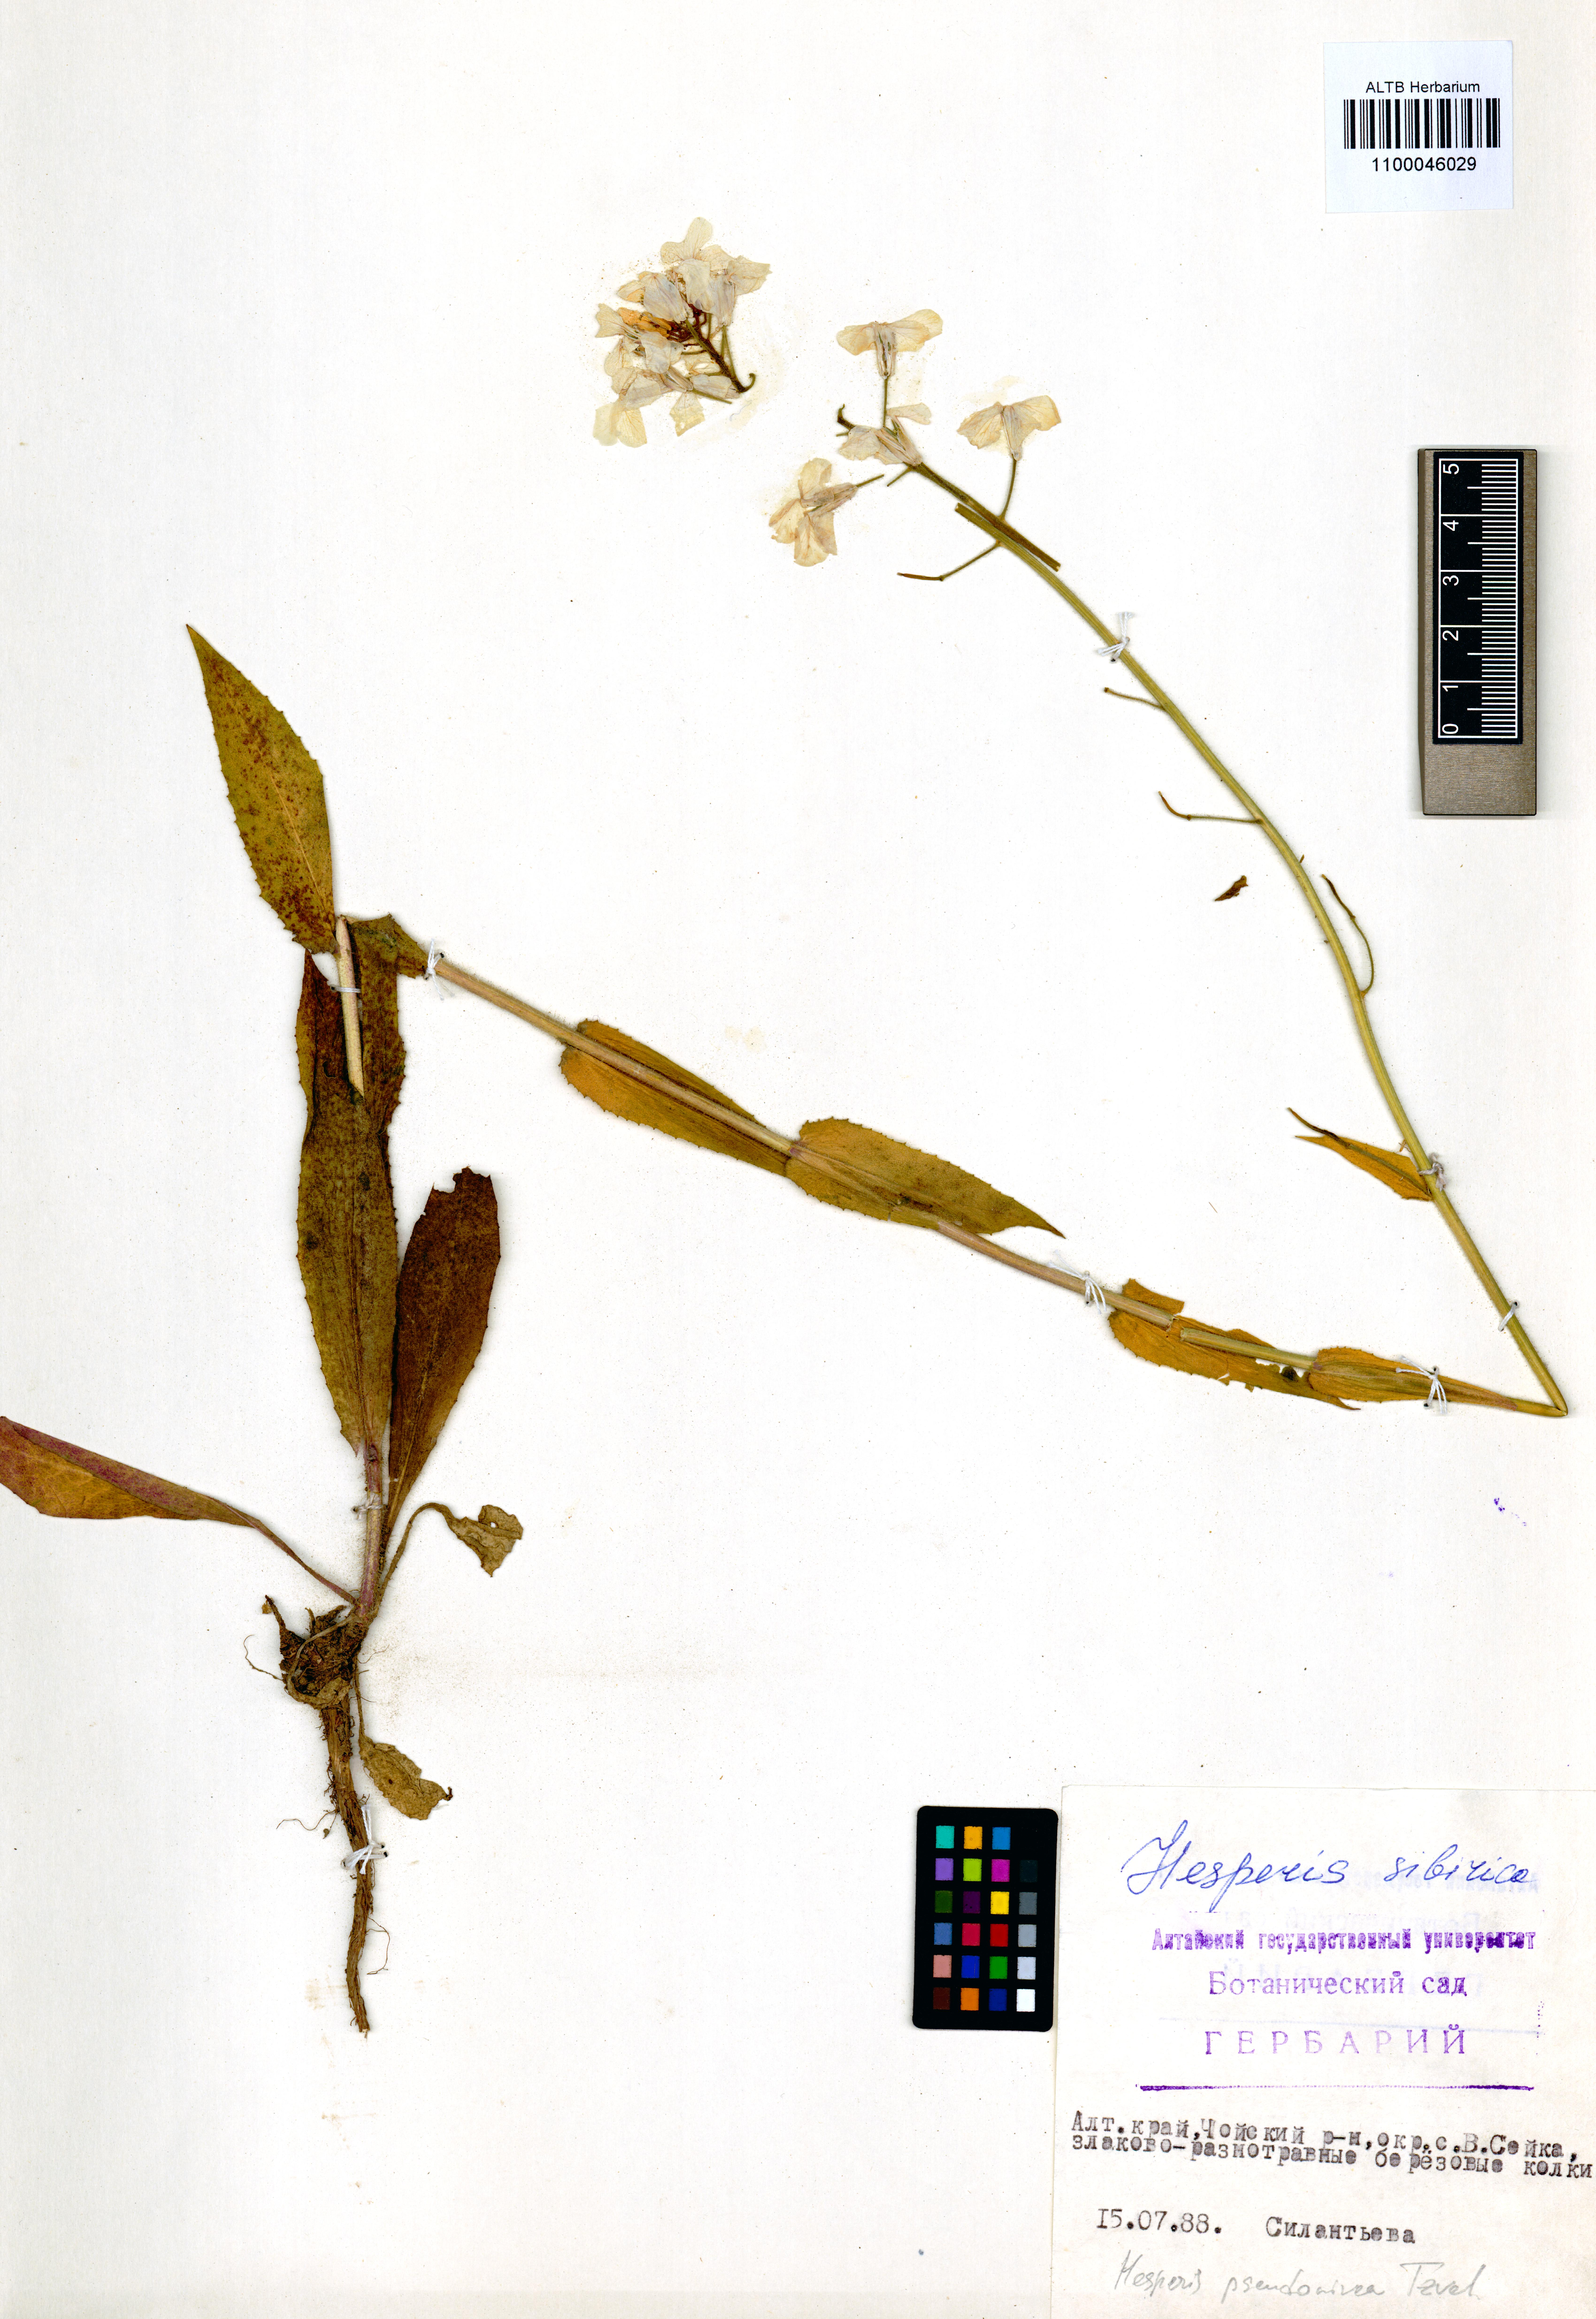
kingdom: Plantae
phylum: Tracheophyta
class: Magnoliopsida
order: Brassicales
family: Brassicaceae
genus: Hesperis
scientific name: Hesperis sibirica
